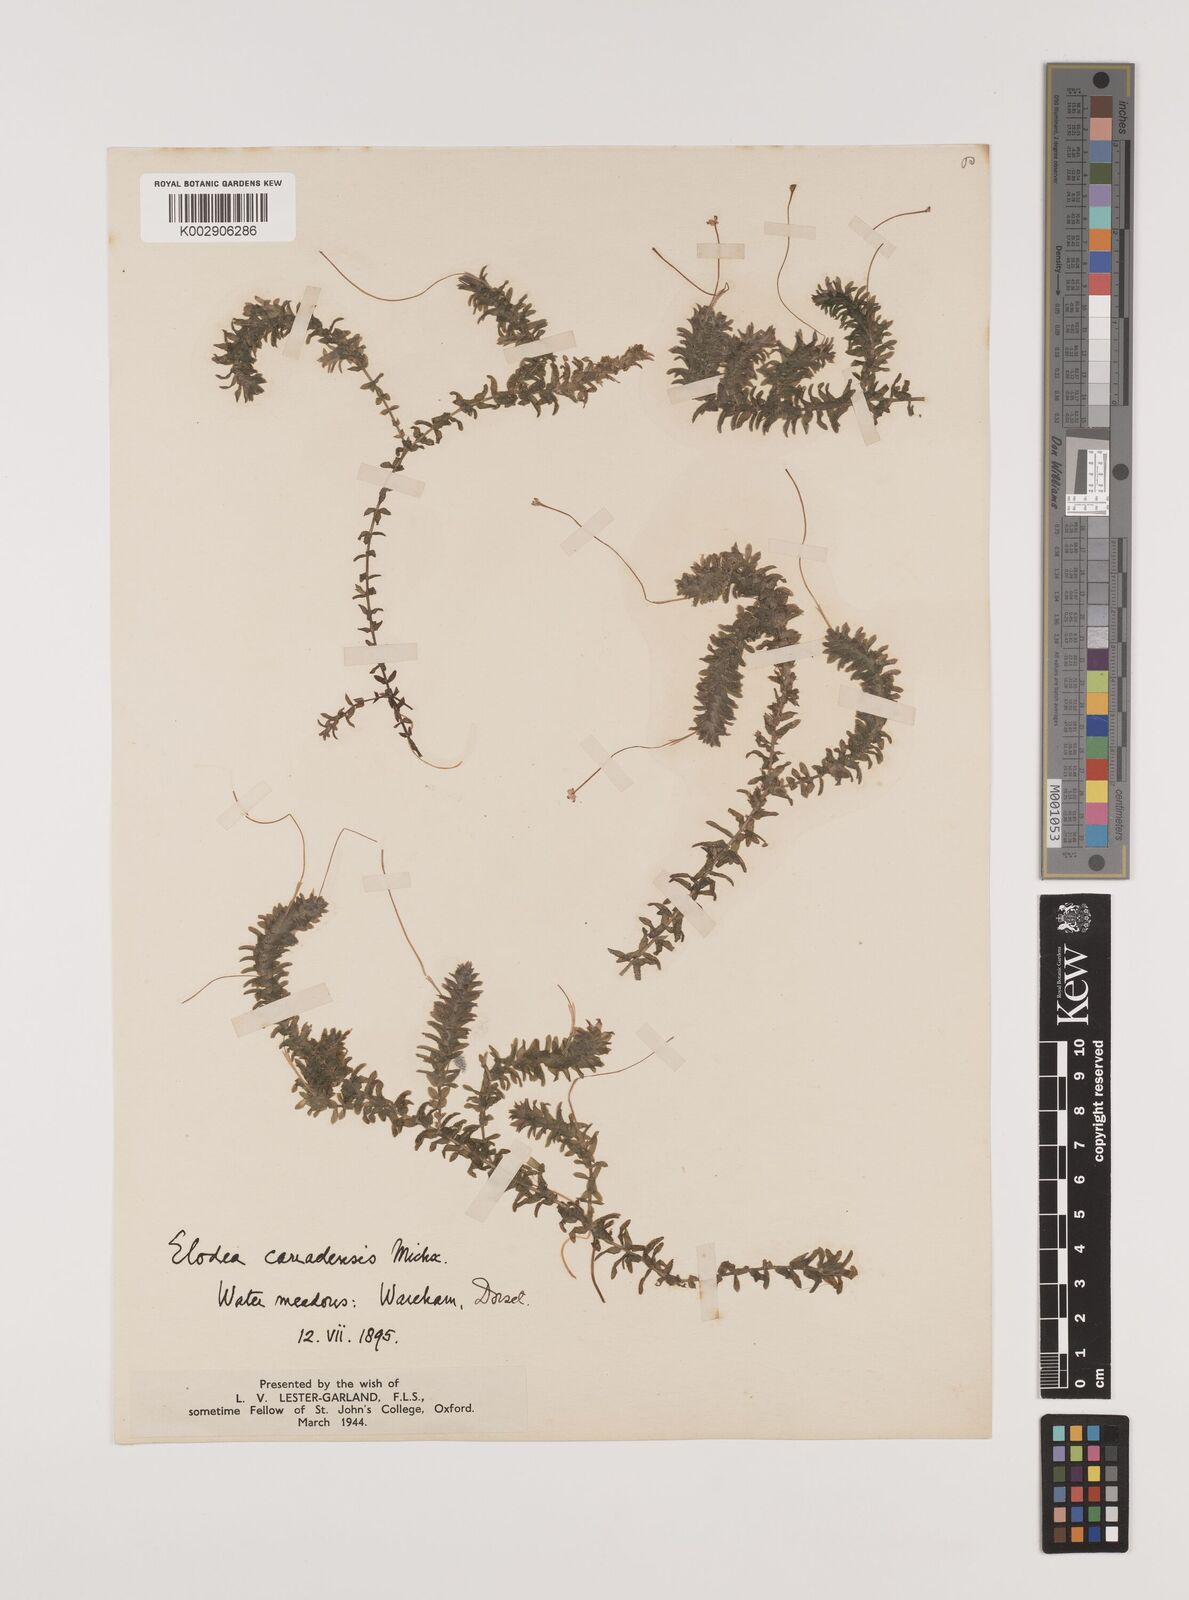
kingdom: Plantae
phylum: Tracheophyta
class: Liliopsida
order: Alismatales
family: Hydrocharitaceae
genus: Elodea
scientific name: Elodea canadensis
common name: Canadian waterweed
